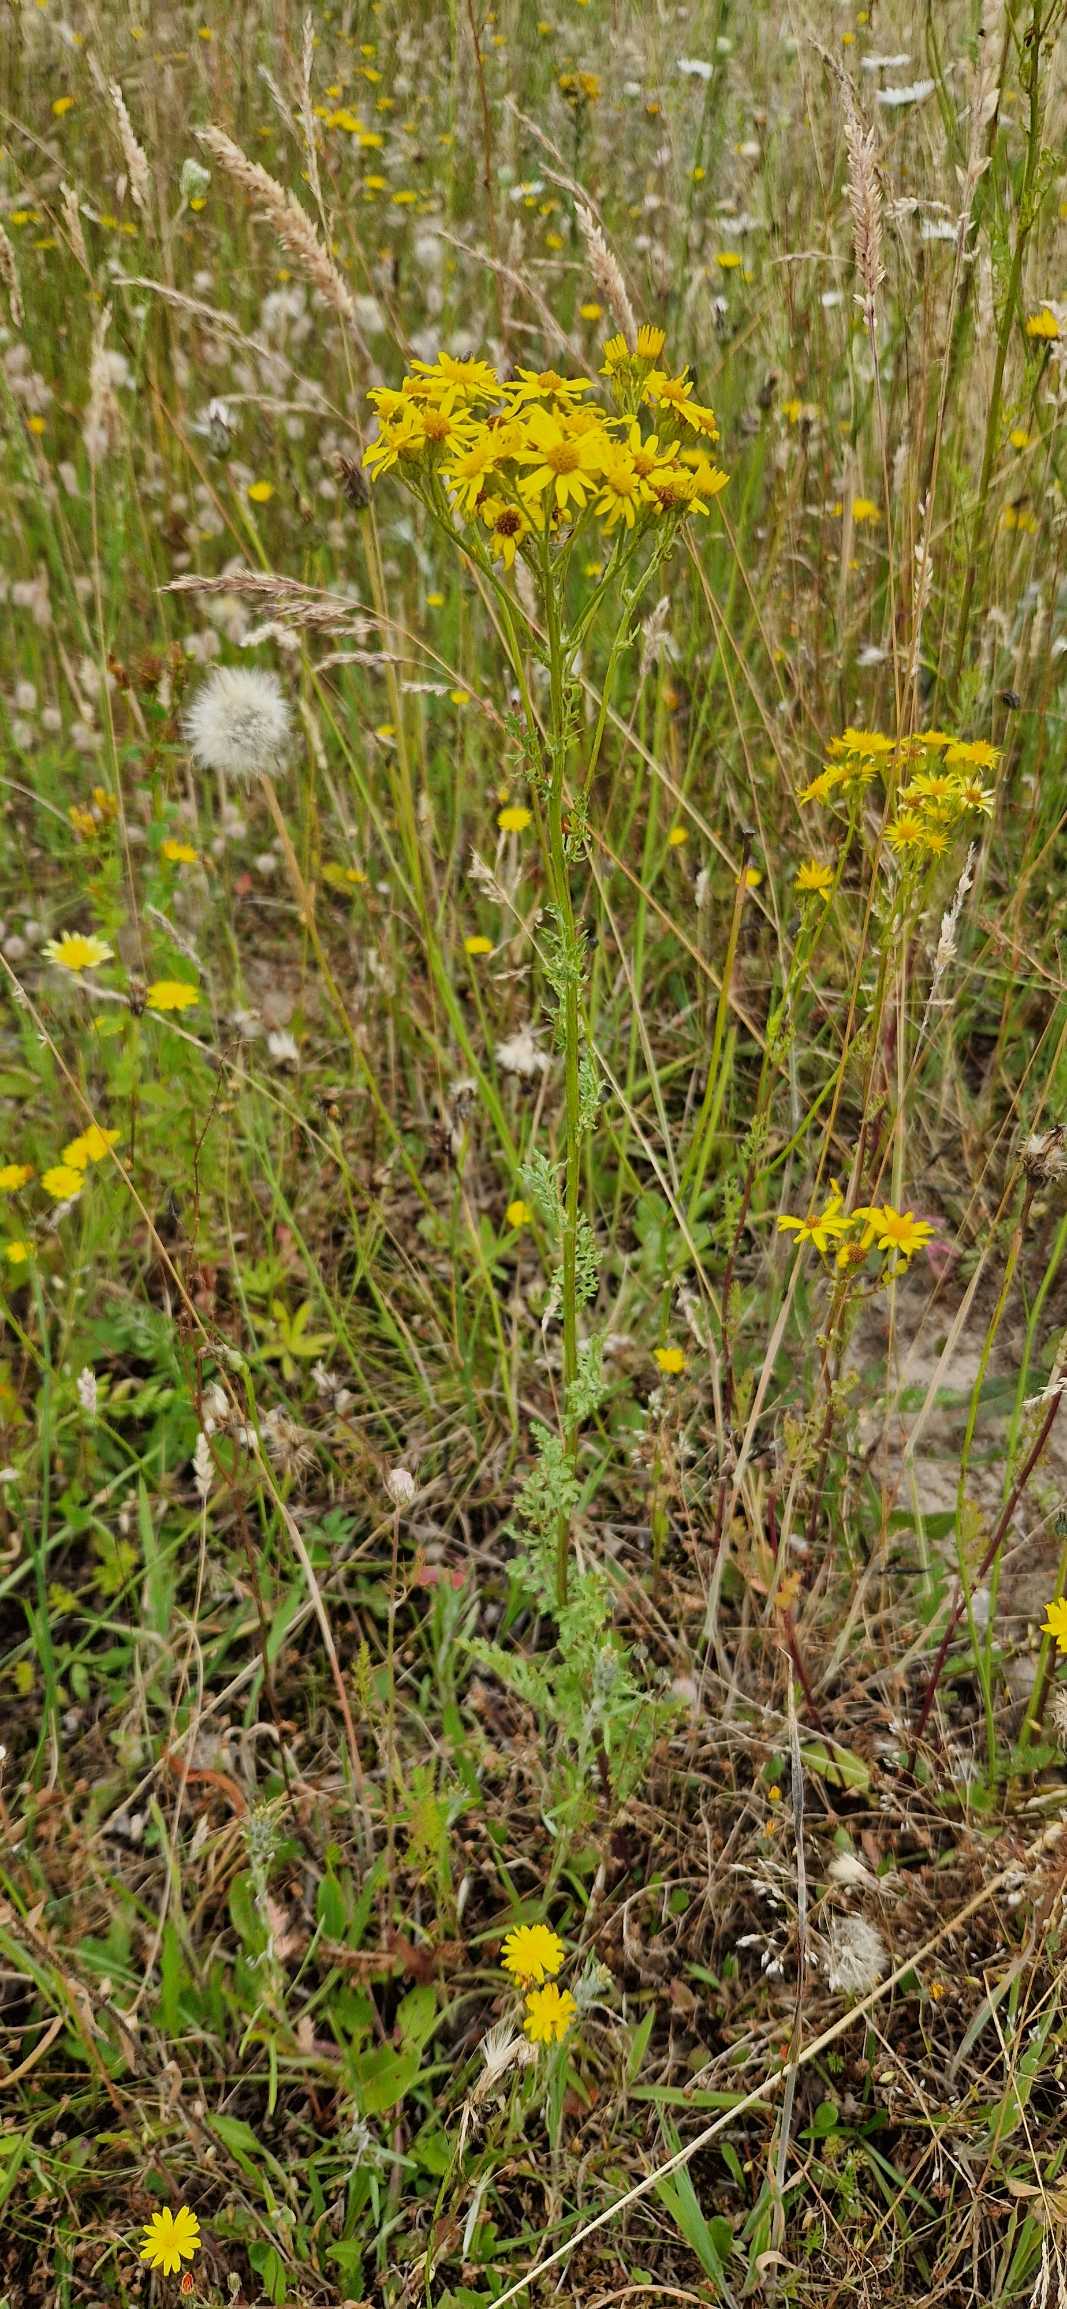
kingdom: Plantae
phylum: Tracheophyta
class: Magnoliopsida
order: Asterales
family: Asteraceae
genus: Jacobaea
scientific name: Jacobaea vulgaris
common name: Eng-brandbæger
